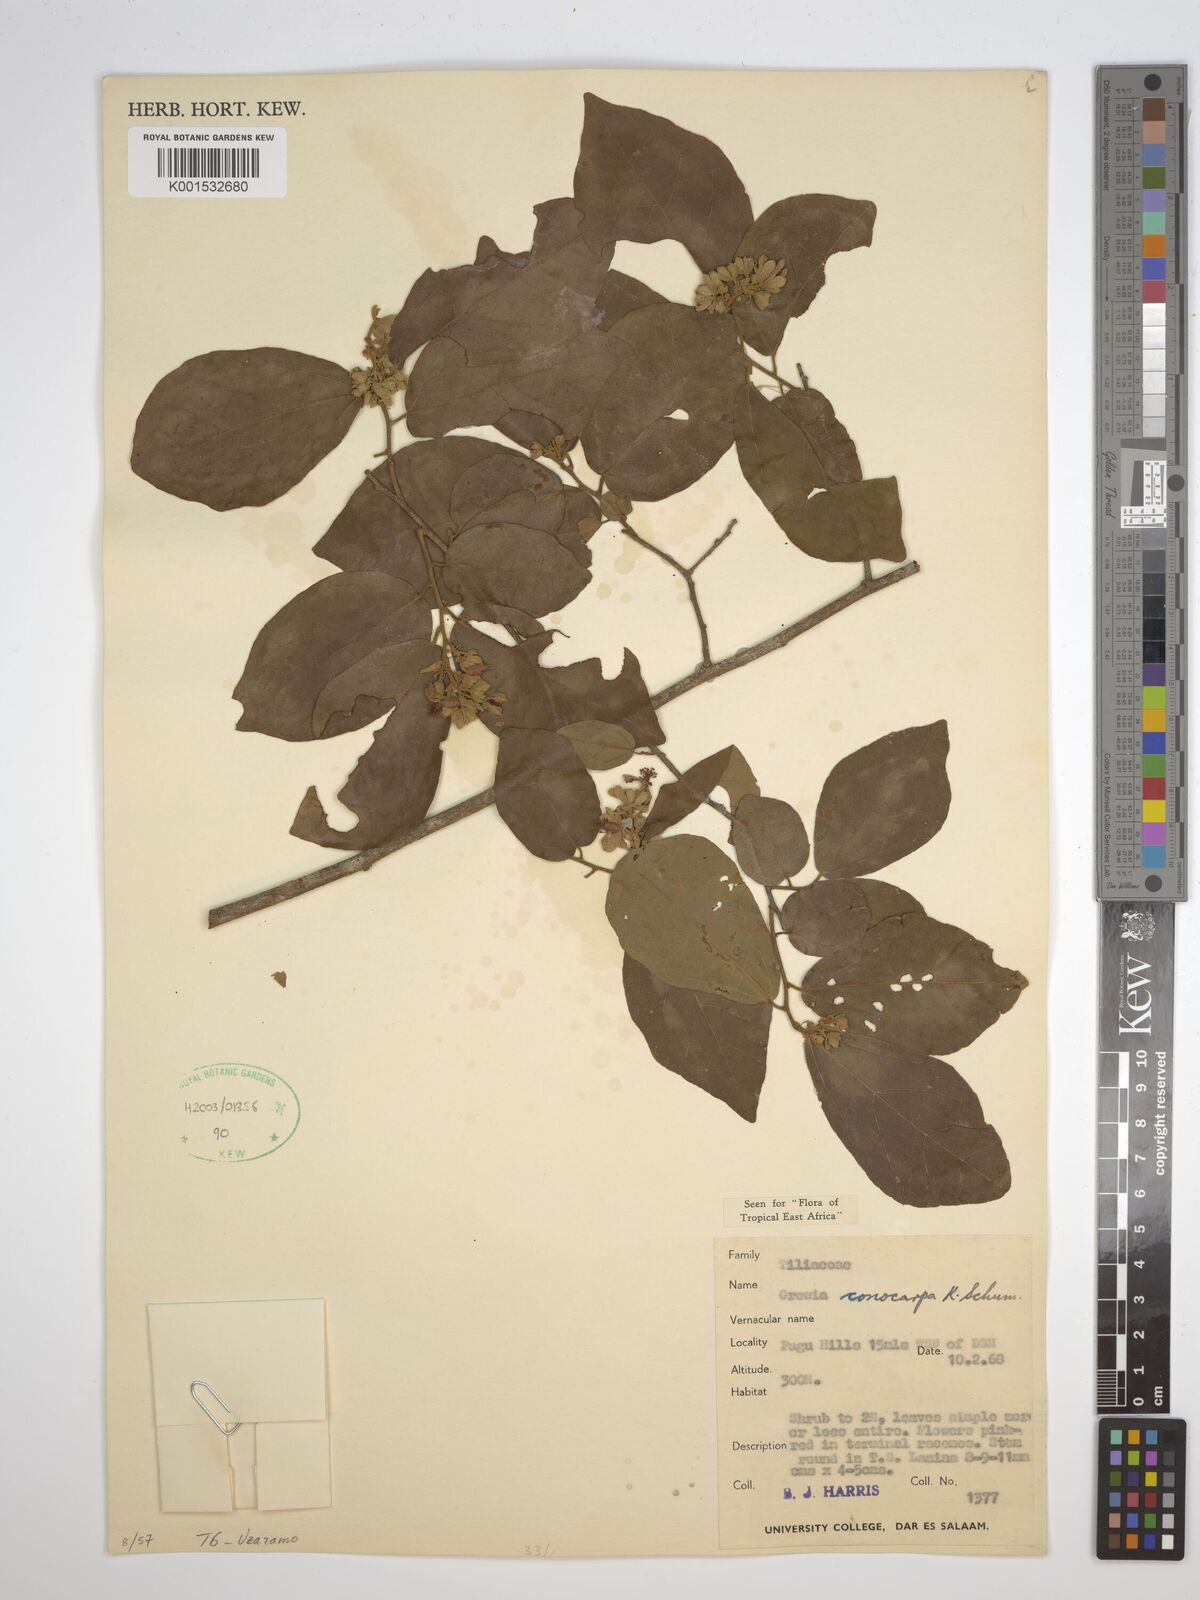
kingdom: Plantae
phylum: Tracheophyta
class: Magnoliopsida
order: Malvales
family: Malvaceae
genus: Microcos
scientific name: Microcos conocarpa
